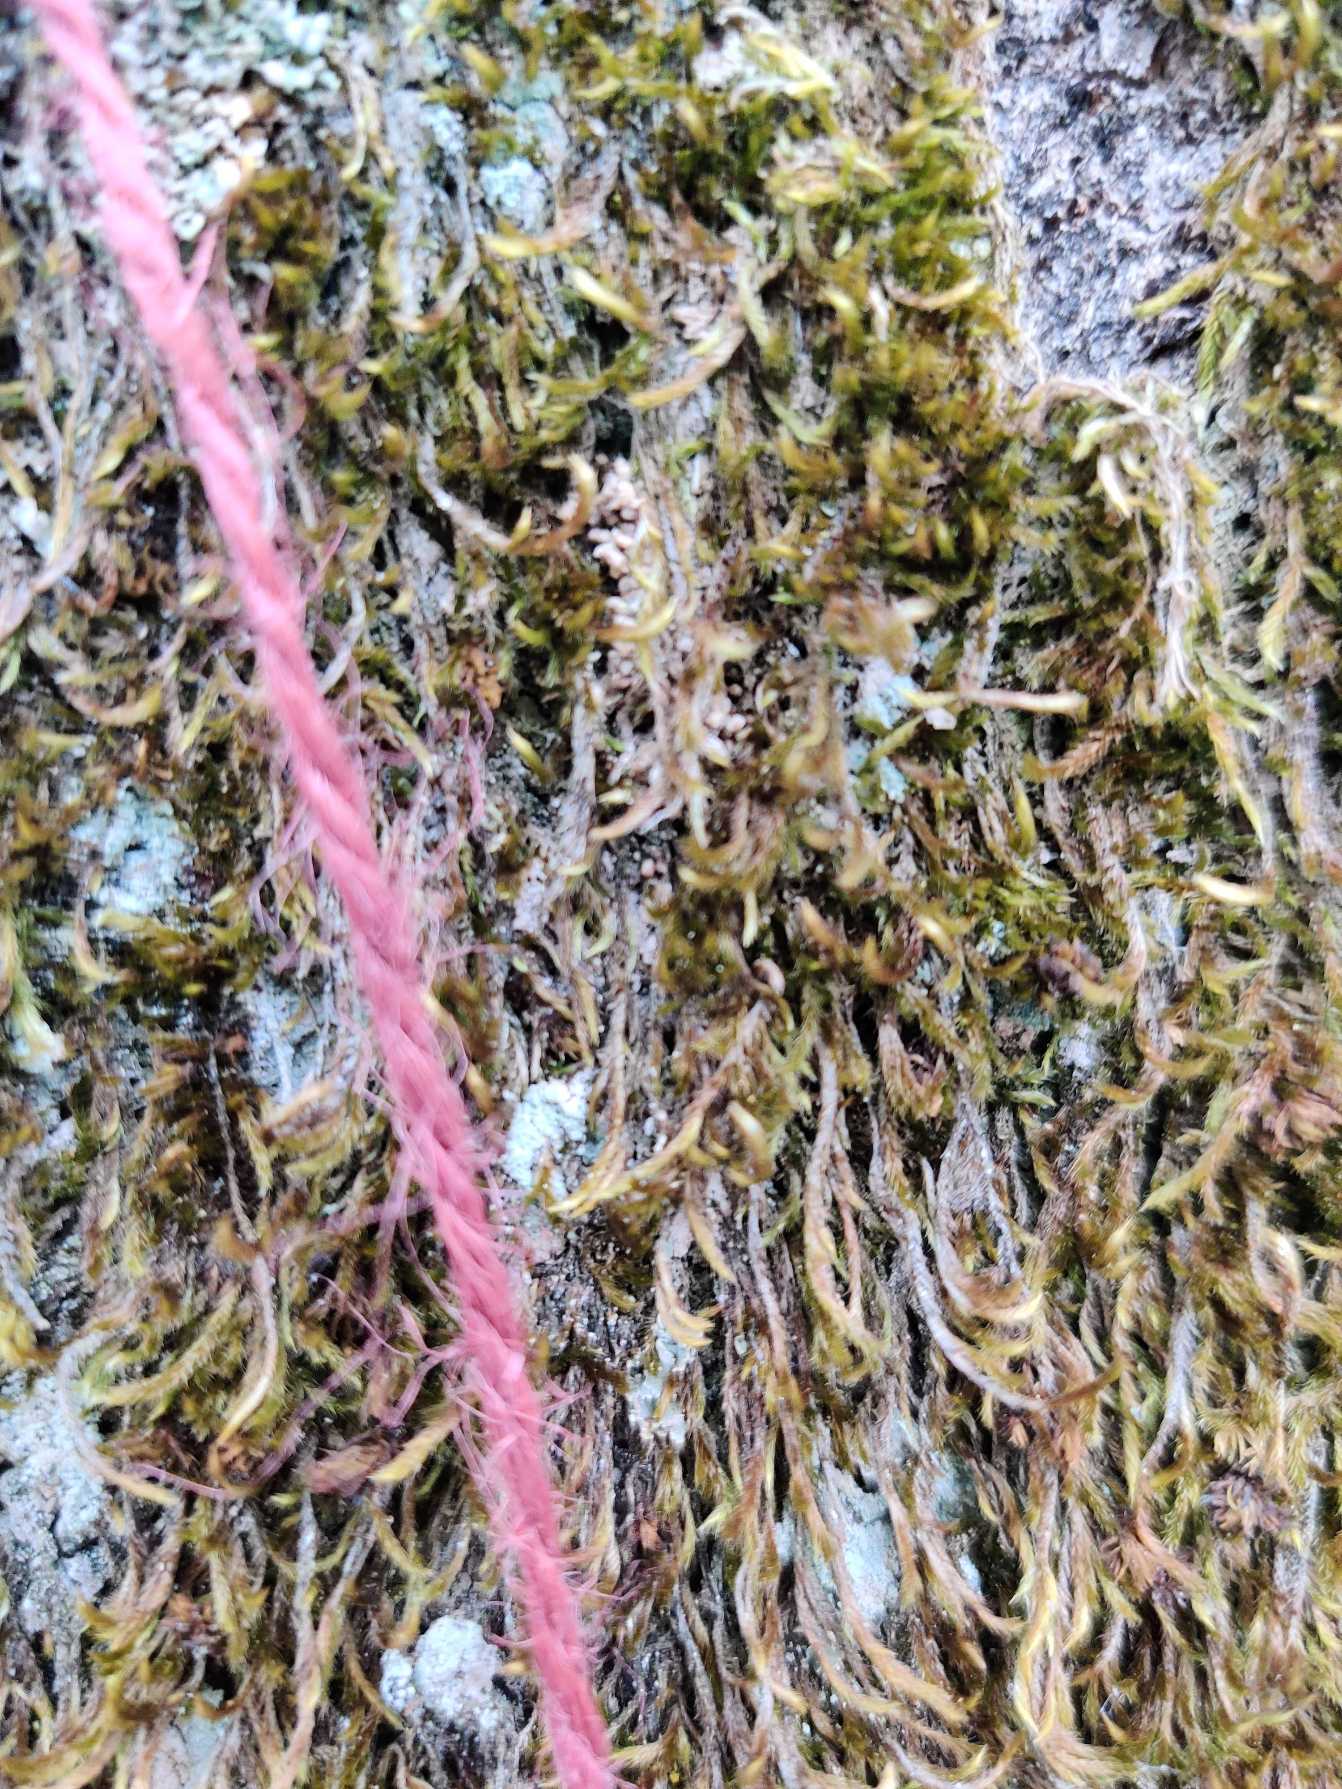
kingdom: Plantae
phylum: Bryophyta
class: Bryopsida
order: Hypnales
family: Hypnaceae
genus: Hypnum
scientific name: Hypnum cupressiforme
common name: Almindelig cypresmos
